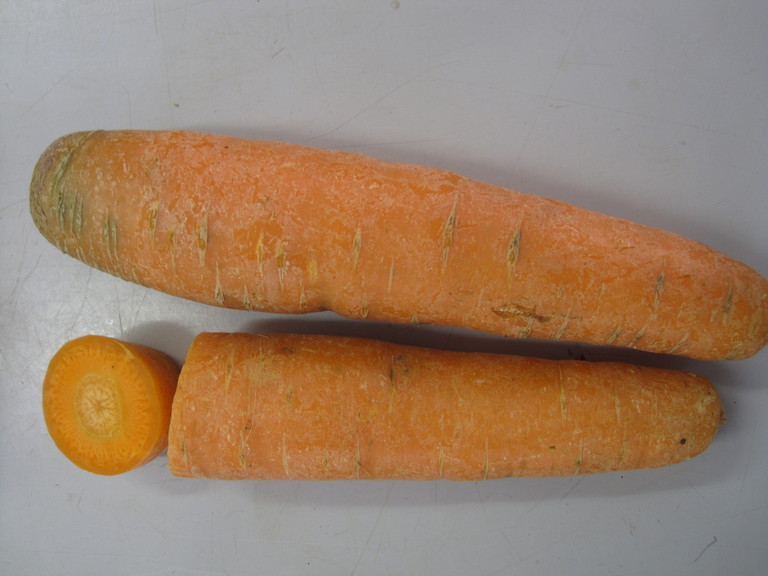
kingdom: Plantae
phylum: Tracheophyta
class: Magnoliopsida
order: Apiales
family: Apiaceae
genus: Daucus
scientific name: Daucus carota
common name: Wild carrot
